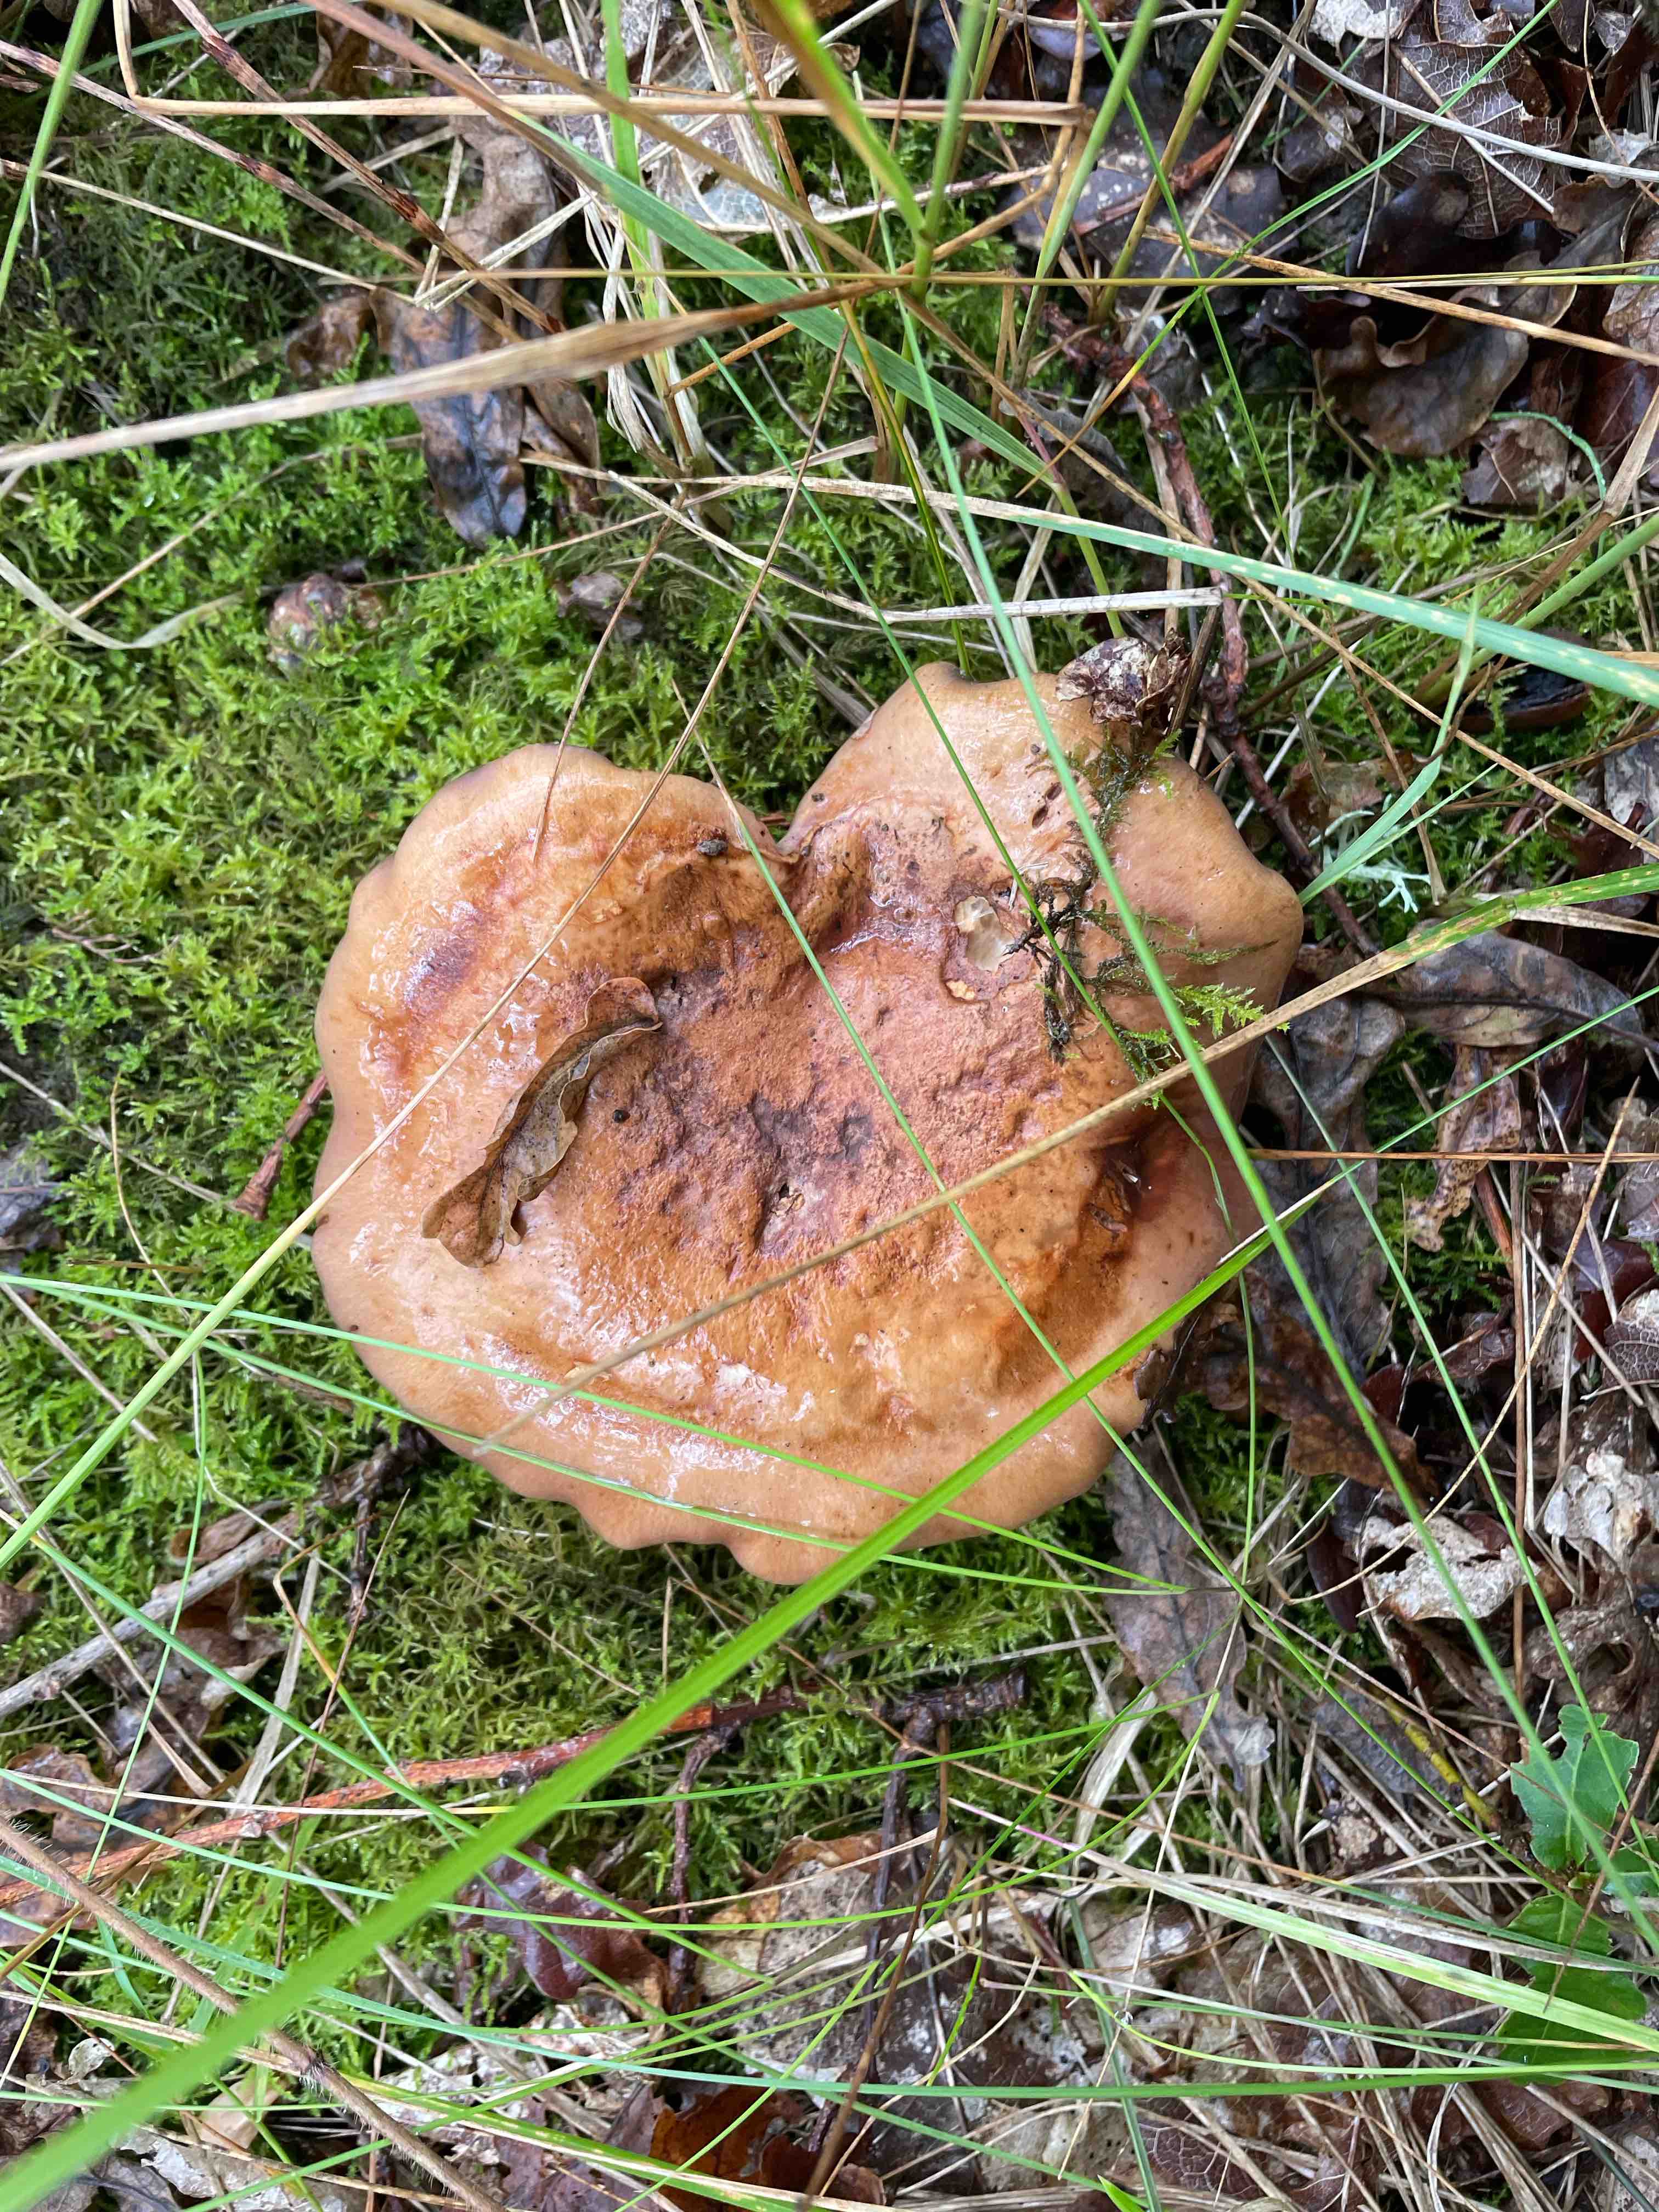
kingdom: Fungi
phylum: Basidiomycota
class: Agaricomycetes
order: Agaricales
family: Cortinariaceae
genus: Phlegmacium
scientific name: Phlegmacium balteatocumatile
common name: violettrådet slørhat
